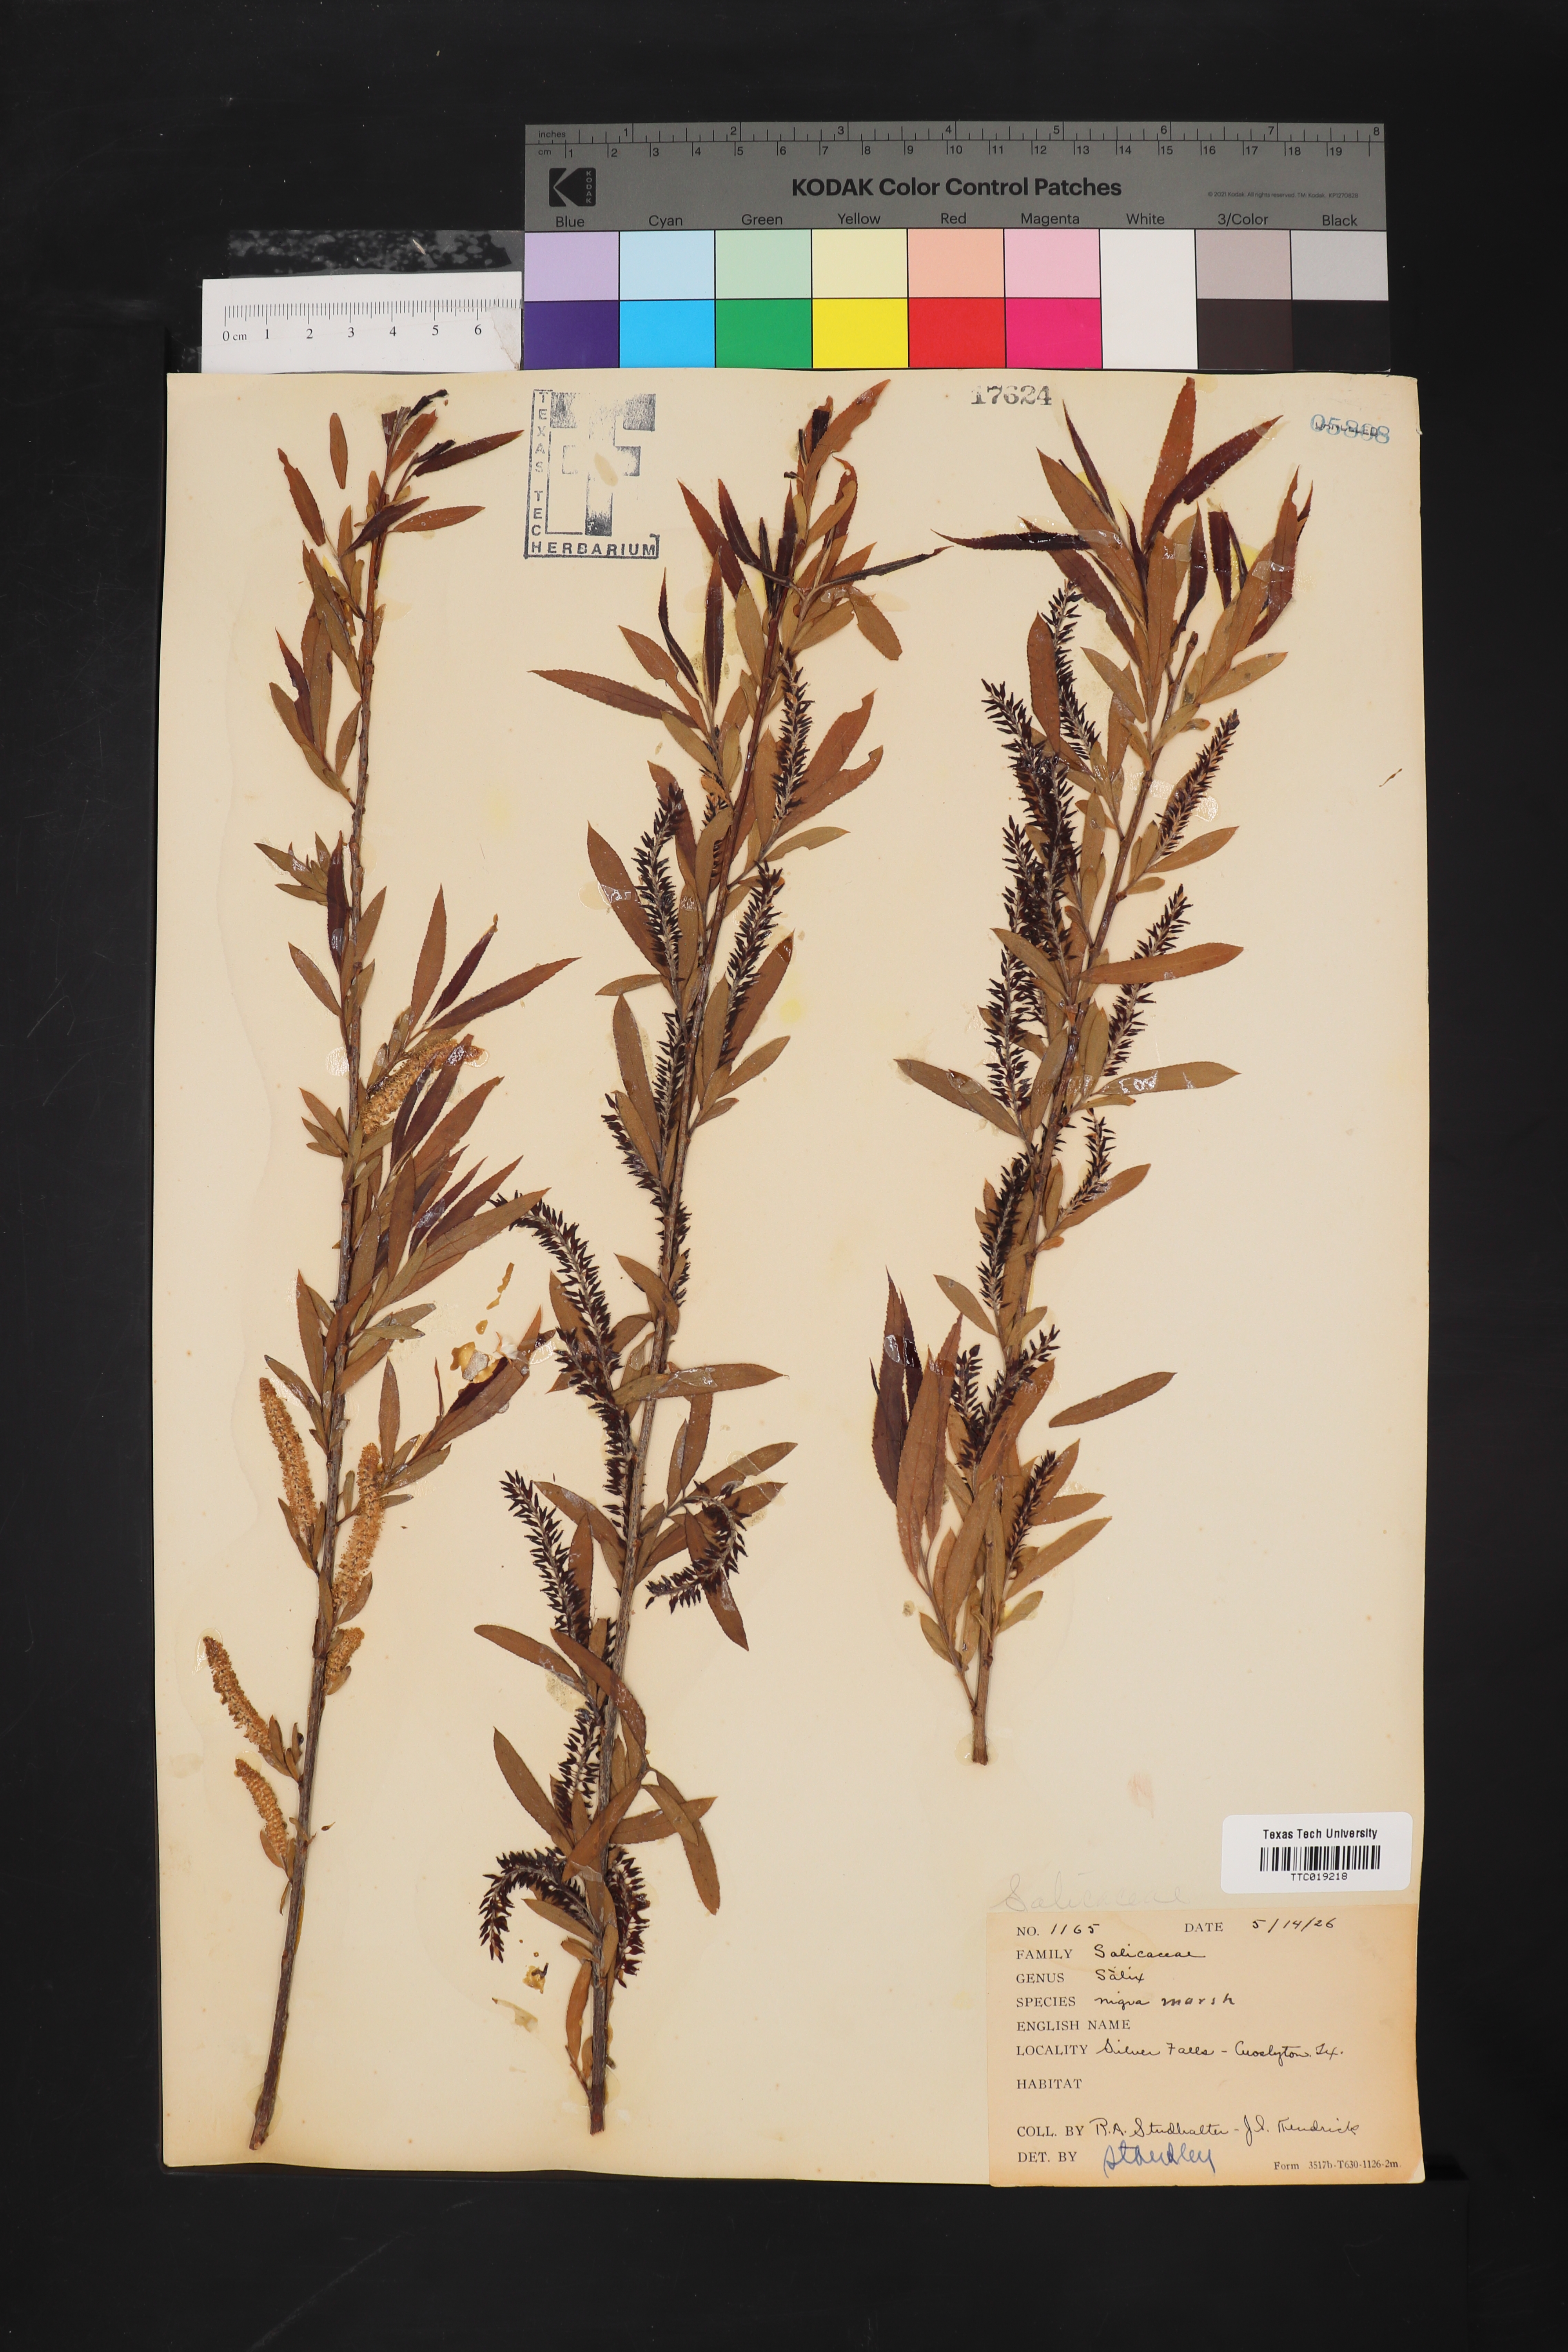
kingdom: Plantae
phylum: Tracheophyta
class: Magnoliopsida
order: Malpighiales
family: Salicaceae
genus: Salix
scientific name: Salix nigra
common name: Black willow
